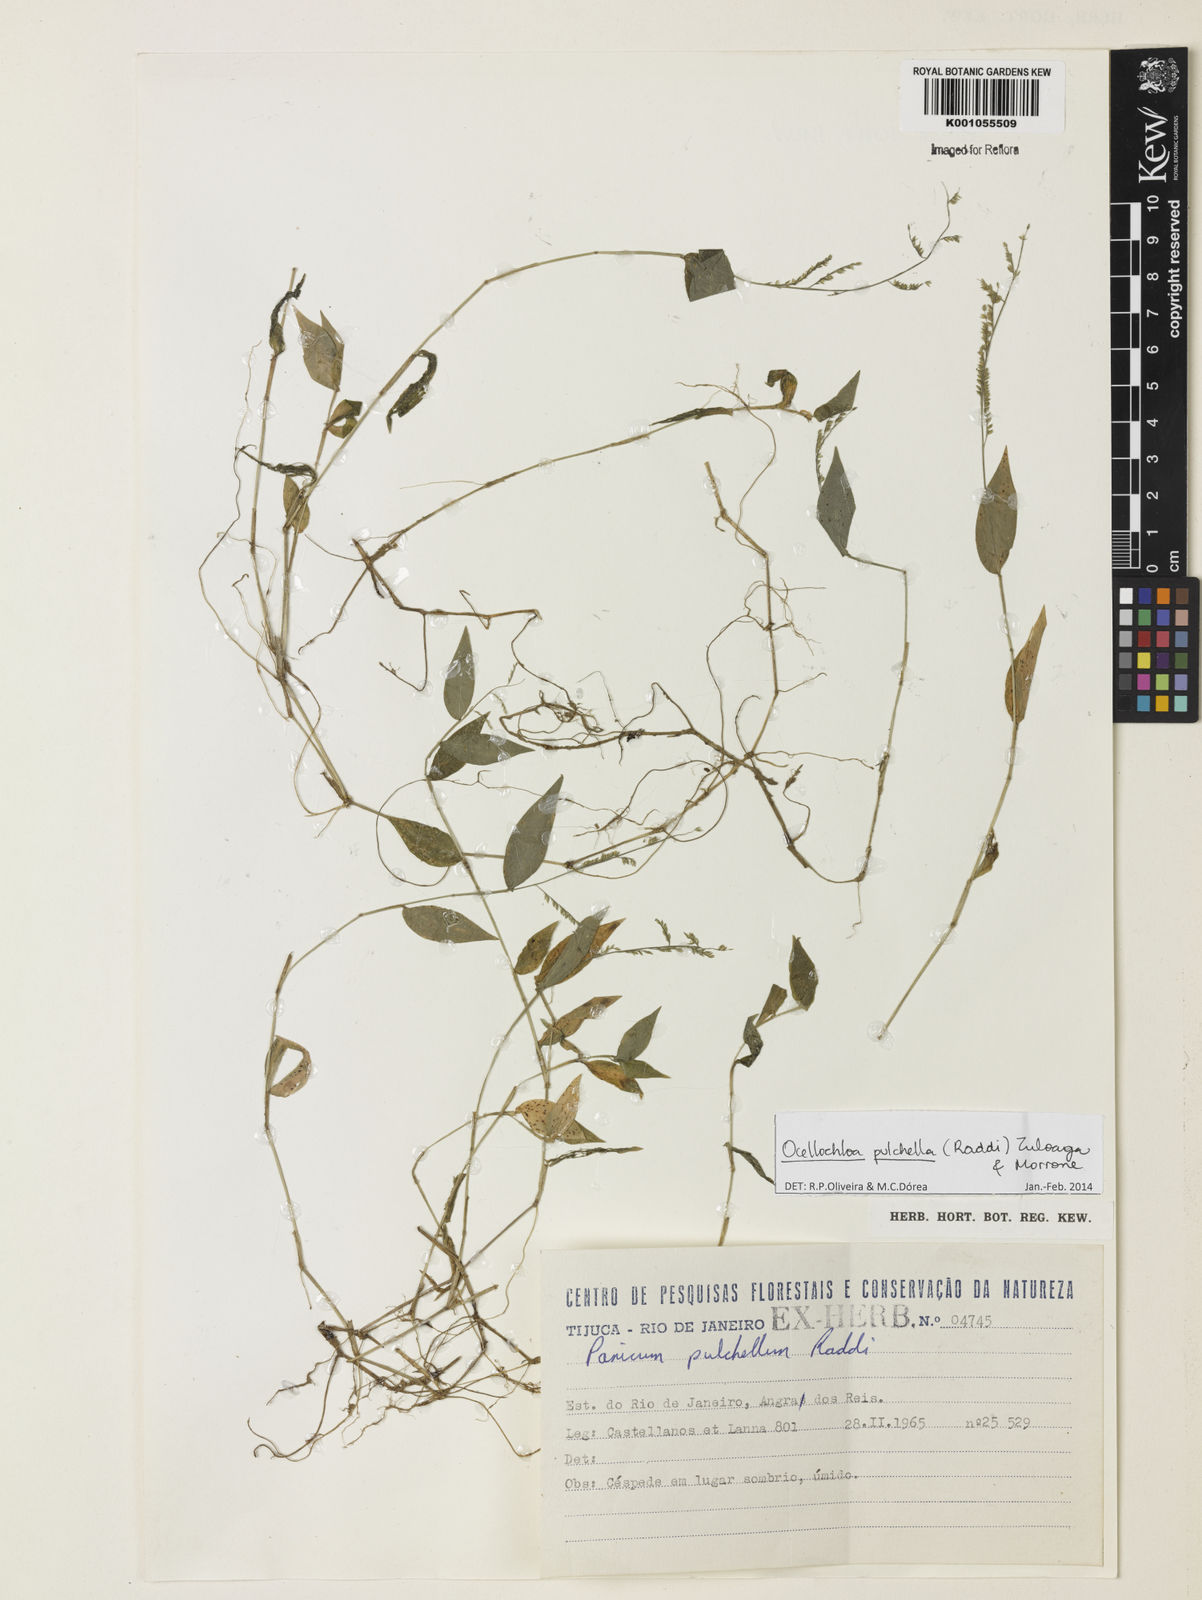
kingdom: Plantae
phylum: Tracheophyta
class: Liliopsida
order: Poales
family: Poaceae
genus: Ocellochloa
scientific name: Ocellochloa pulchella
